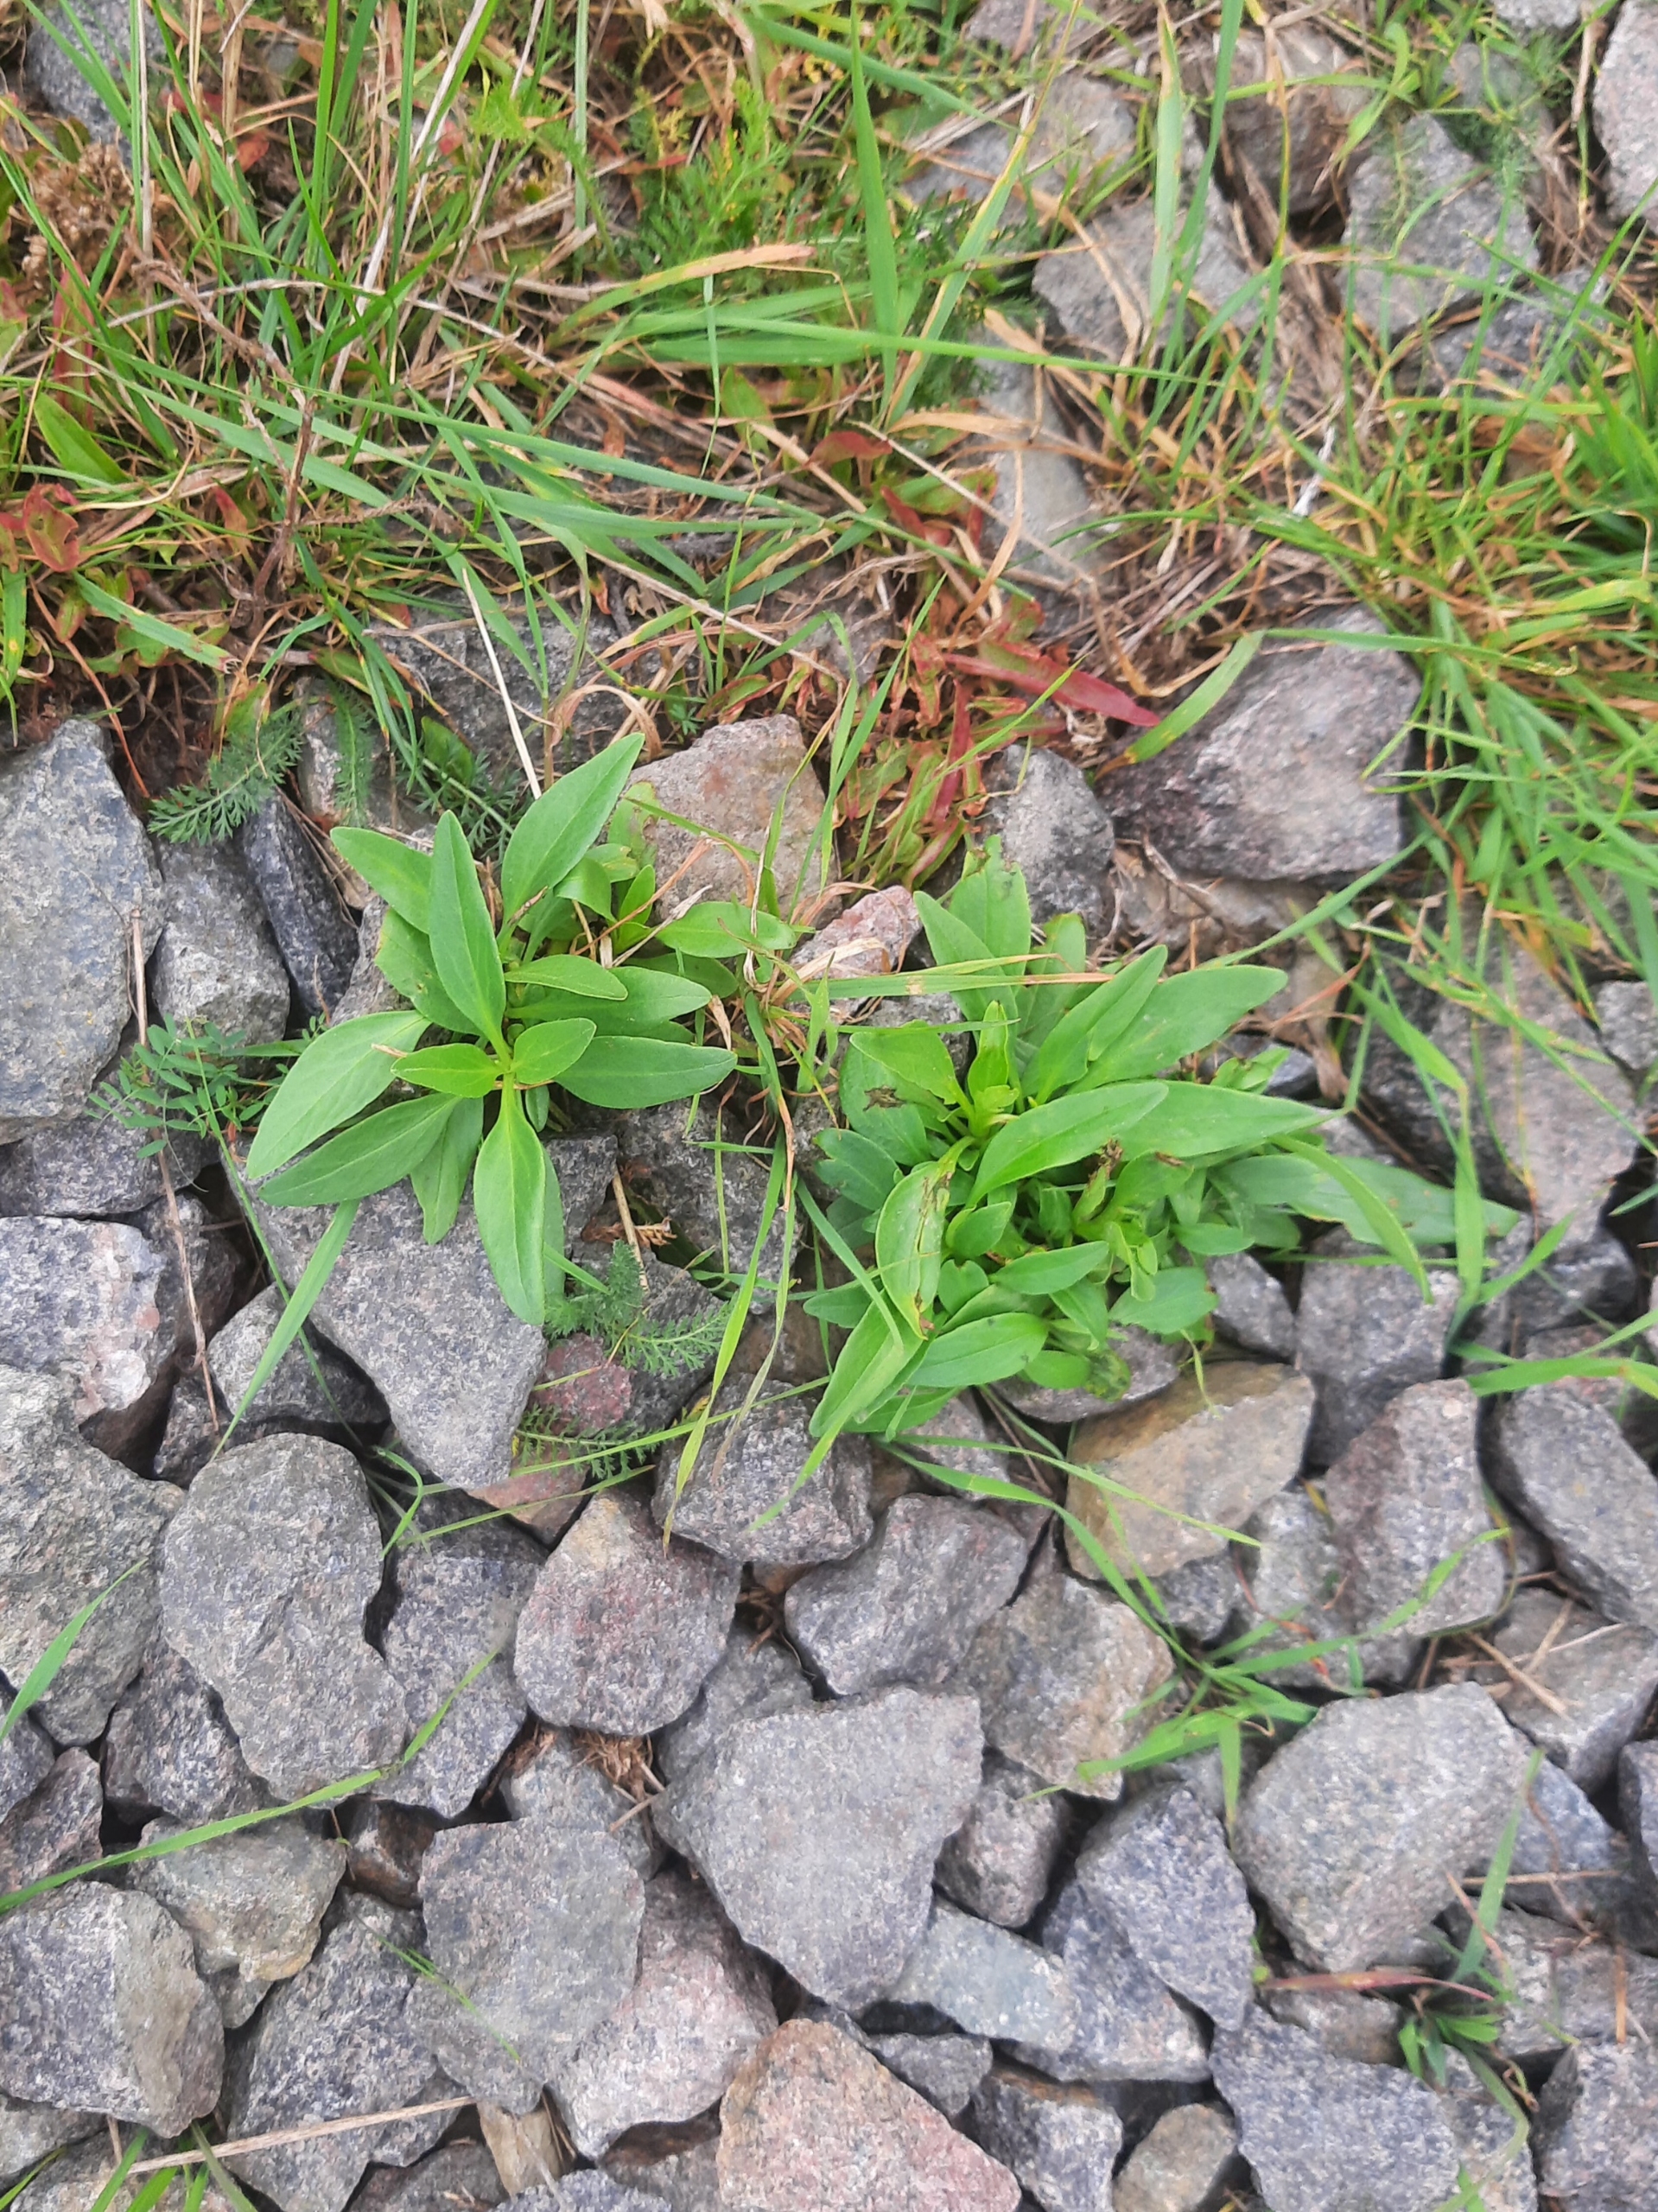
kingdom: Plantae
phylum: Tracheophyta
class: Magnoliopsida
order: Dipsacales
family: Caprifoliaceae
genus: Centranthus
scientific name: Centranthus ruber
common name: Sporebaldrian
